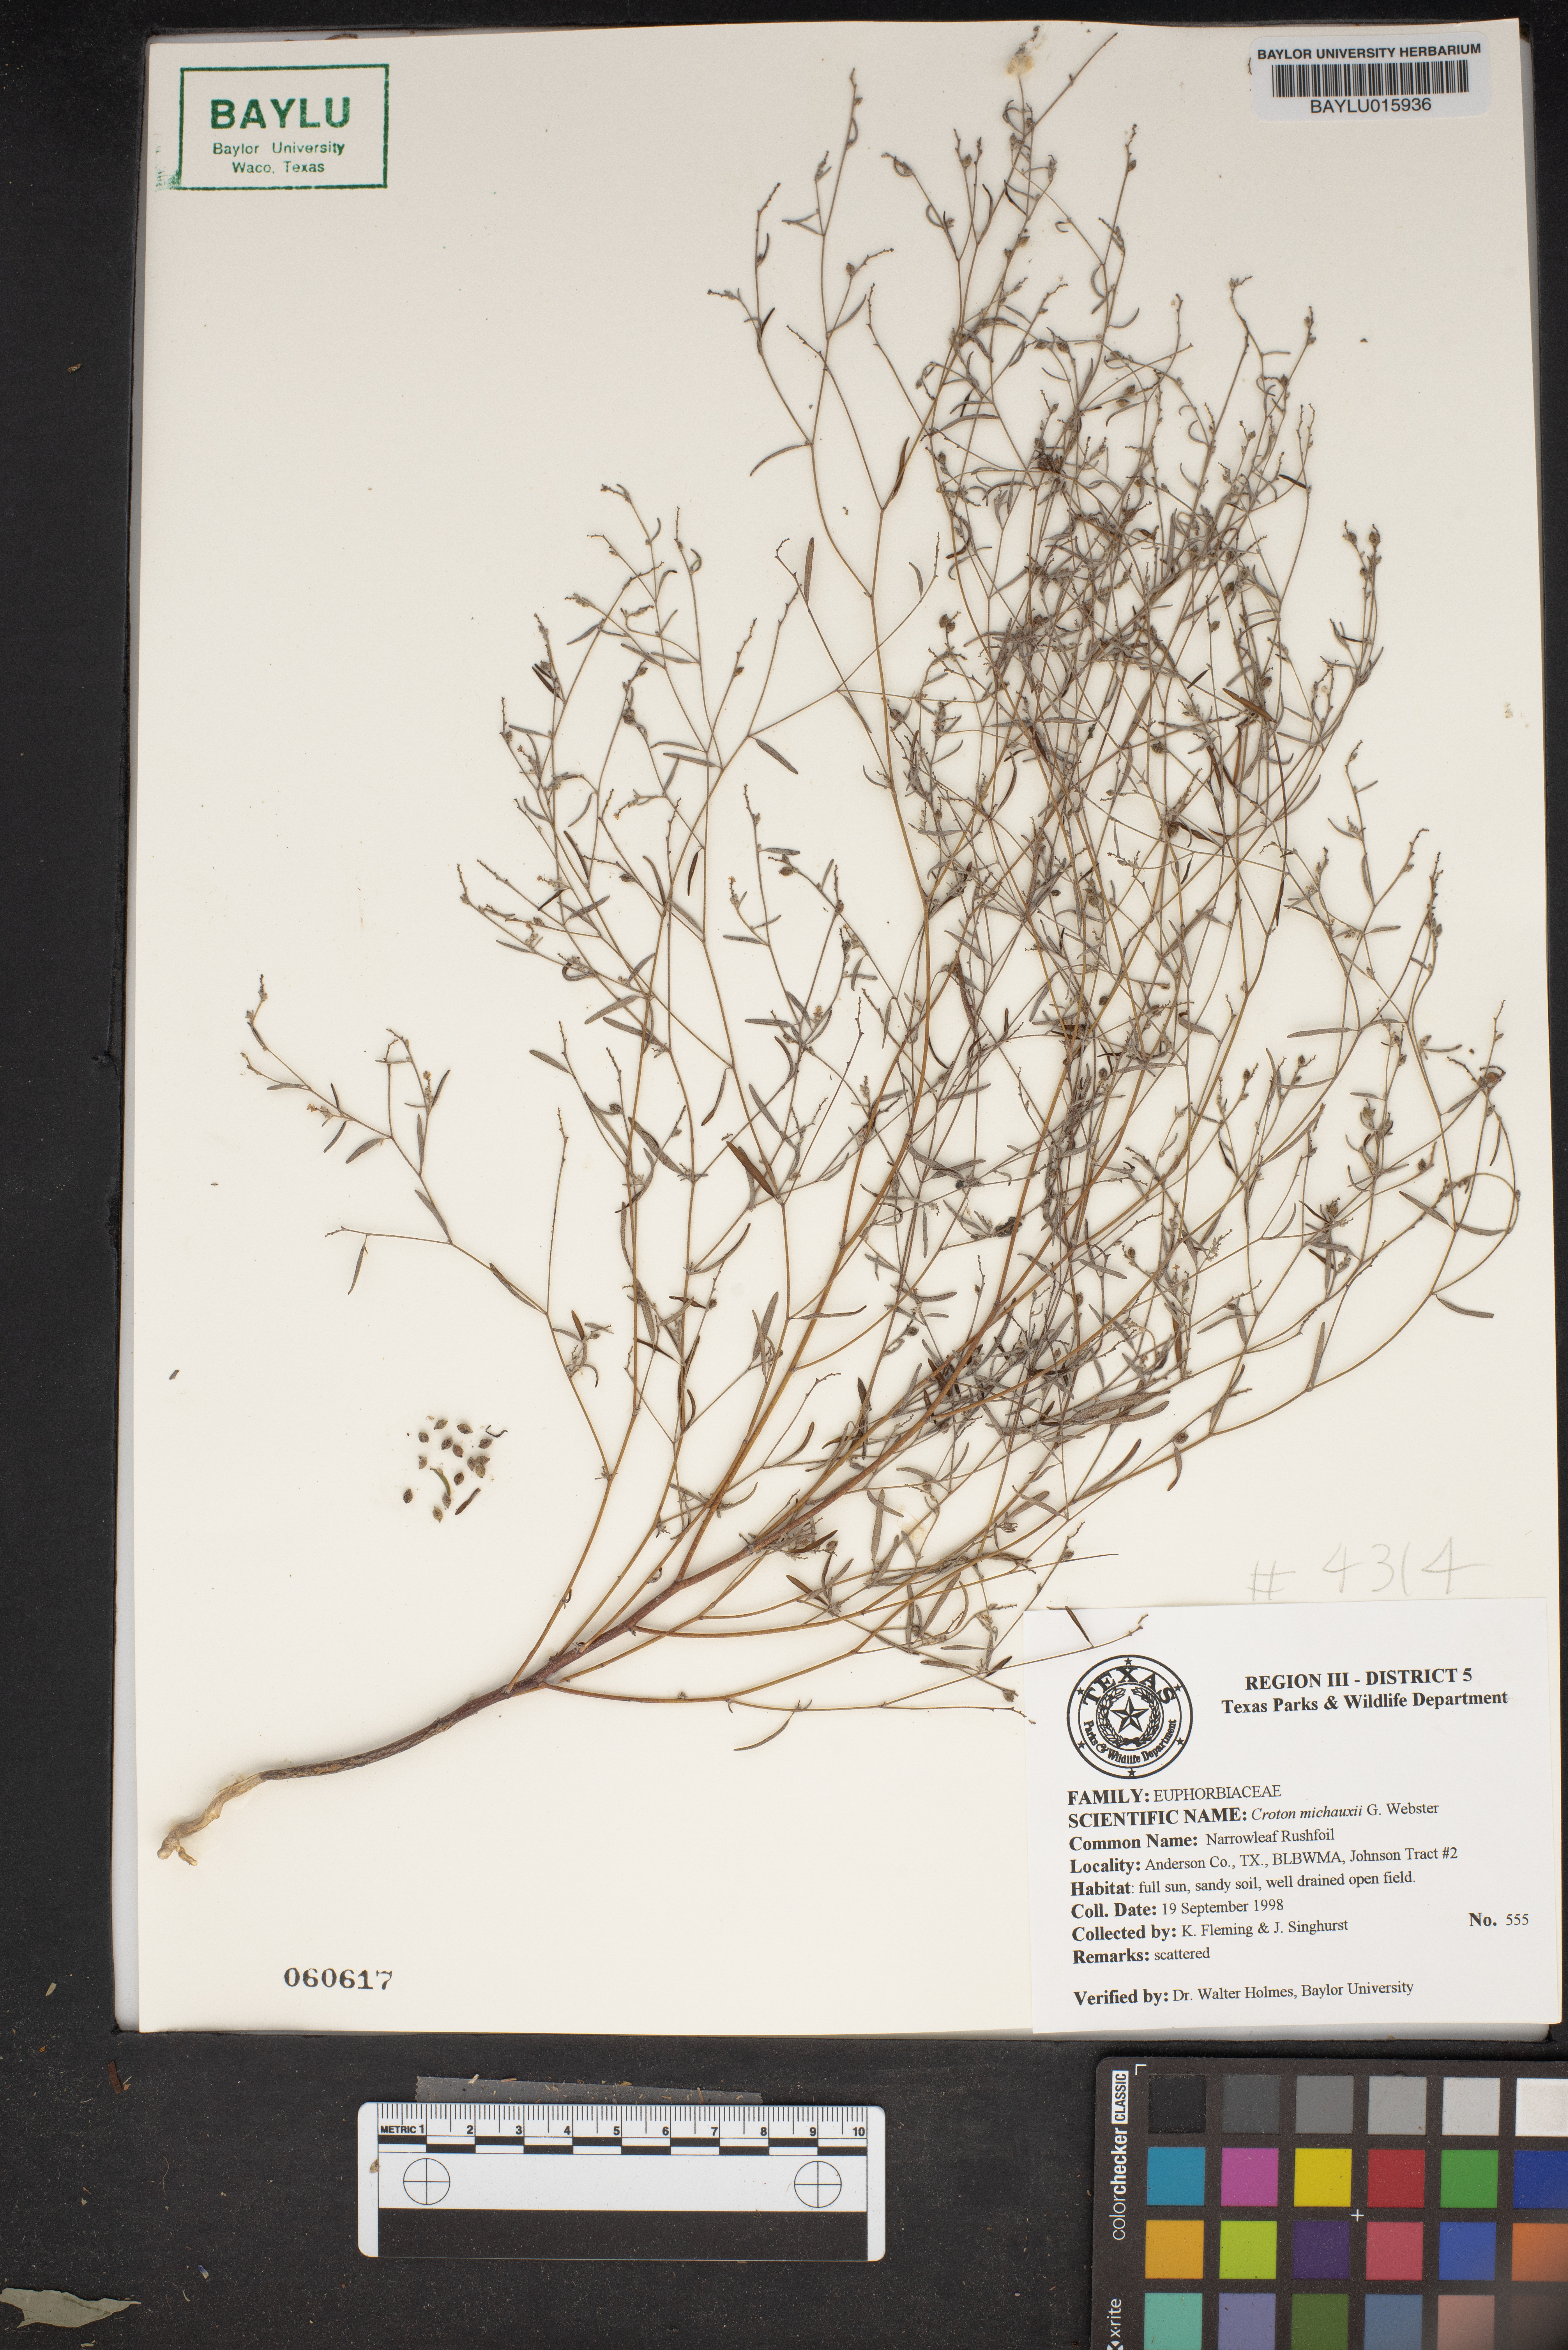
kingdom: Plantae
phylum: Tracheophyta
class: Magnoliopsida
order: Malpighiales
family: Euphorbiaceae
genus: Croton
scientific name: Croton michauxii
